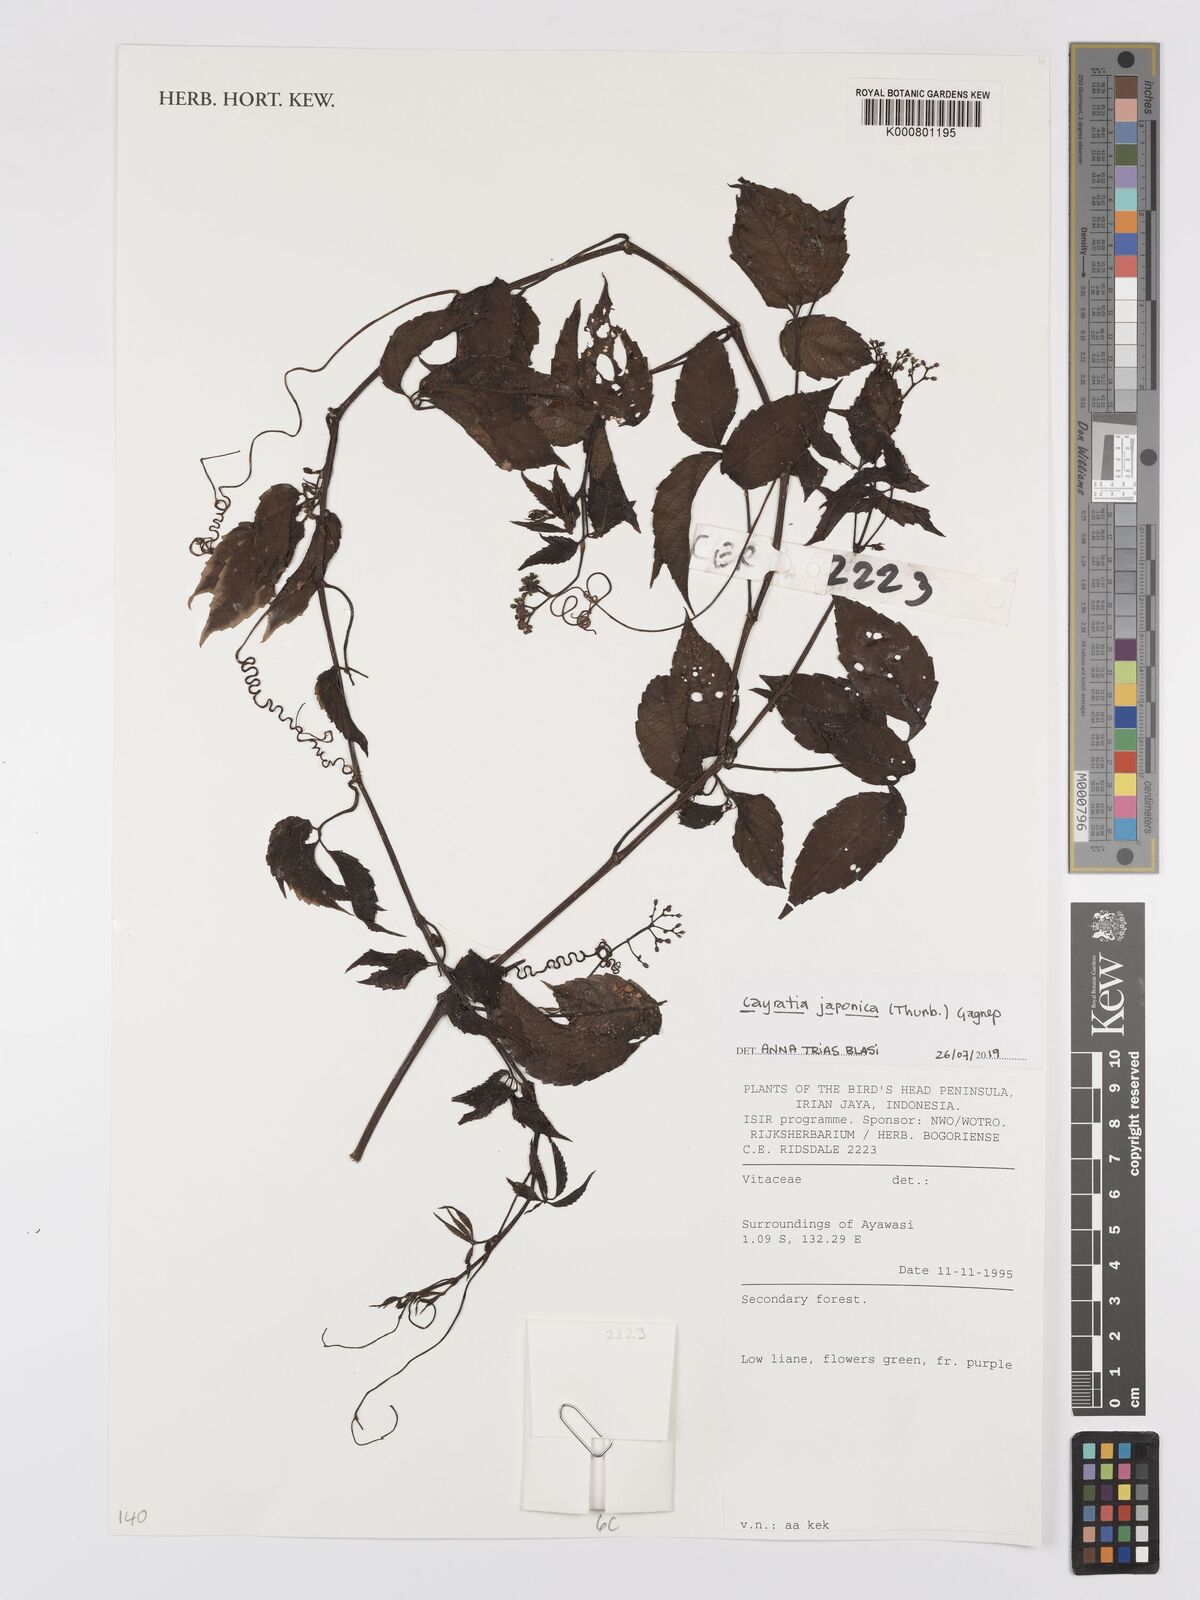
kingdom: Plantae
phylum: Tracheophyta
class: Magnoliopsida
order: Vitales
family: Vitaceae
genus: Causonis
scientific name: Causonis japonica
